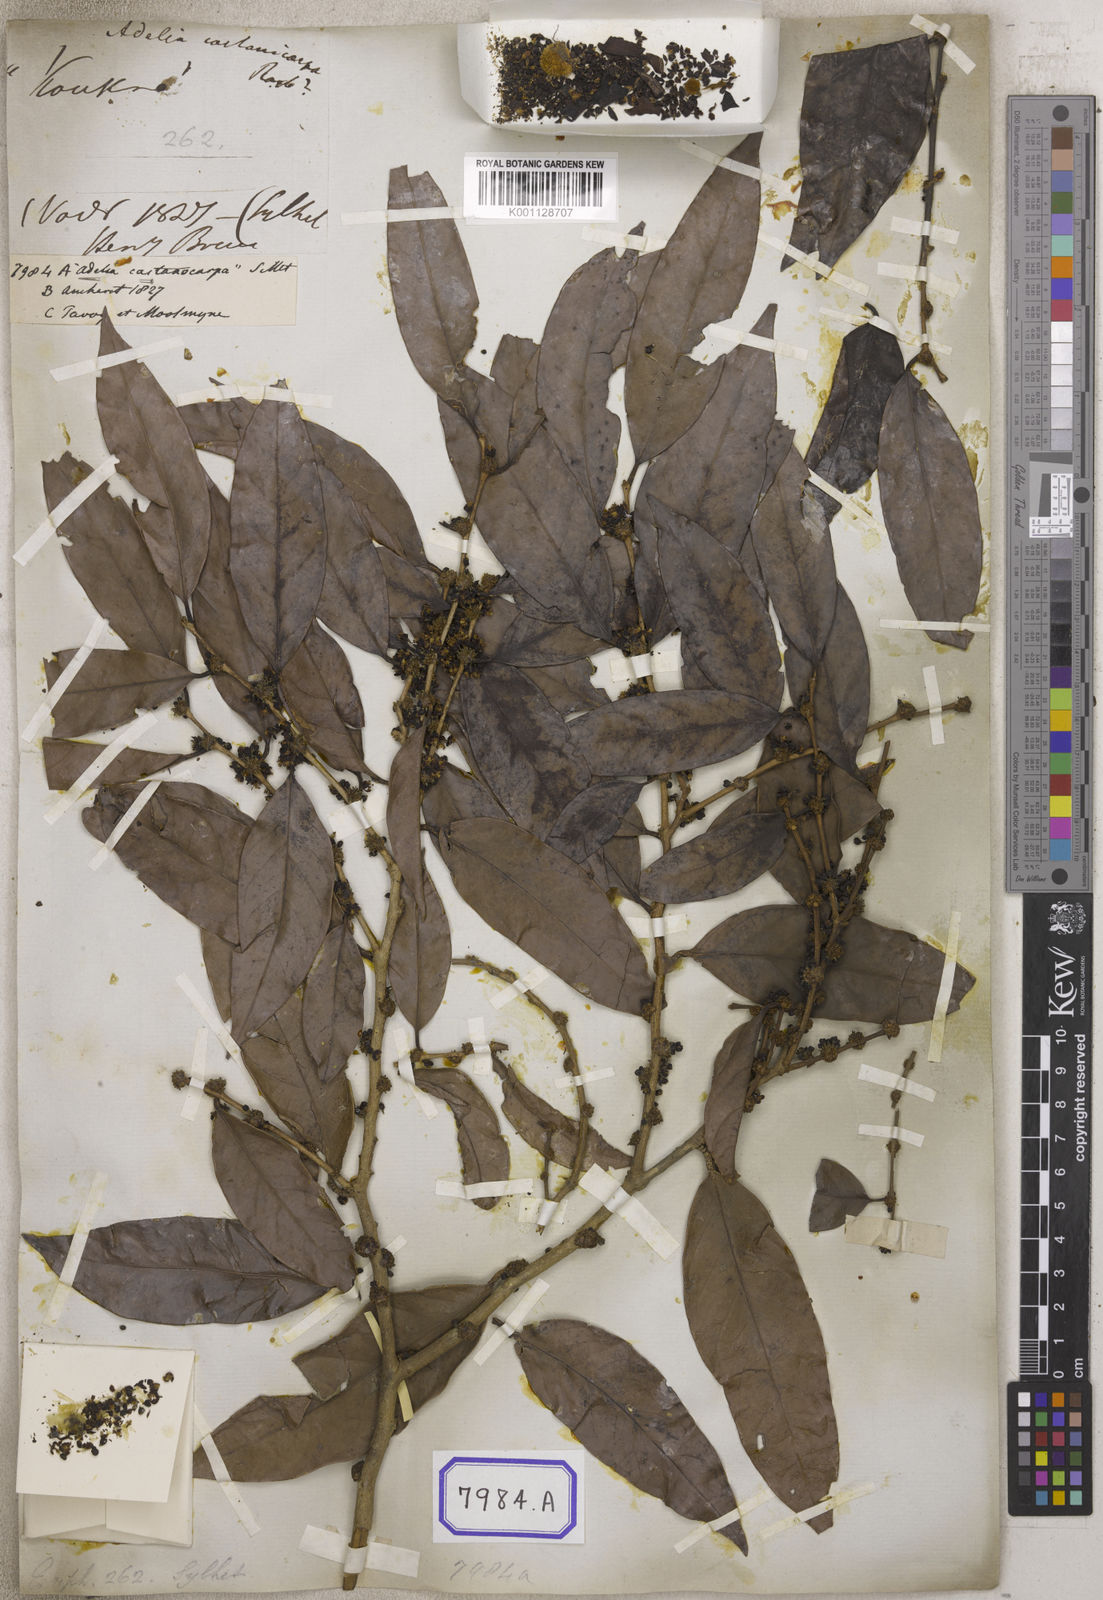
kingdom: Plantae
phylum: Tracheophyta
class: Magnoliopsida
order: Malpighiales
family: Euphorbiaceae
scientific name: Euphorbiaceae
